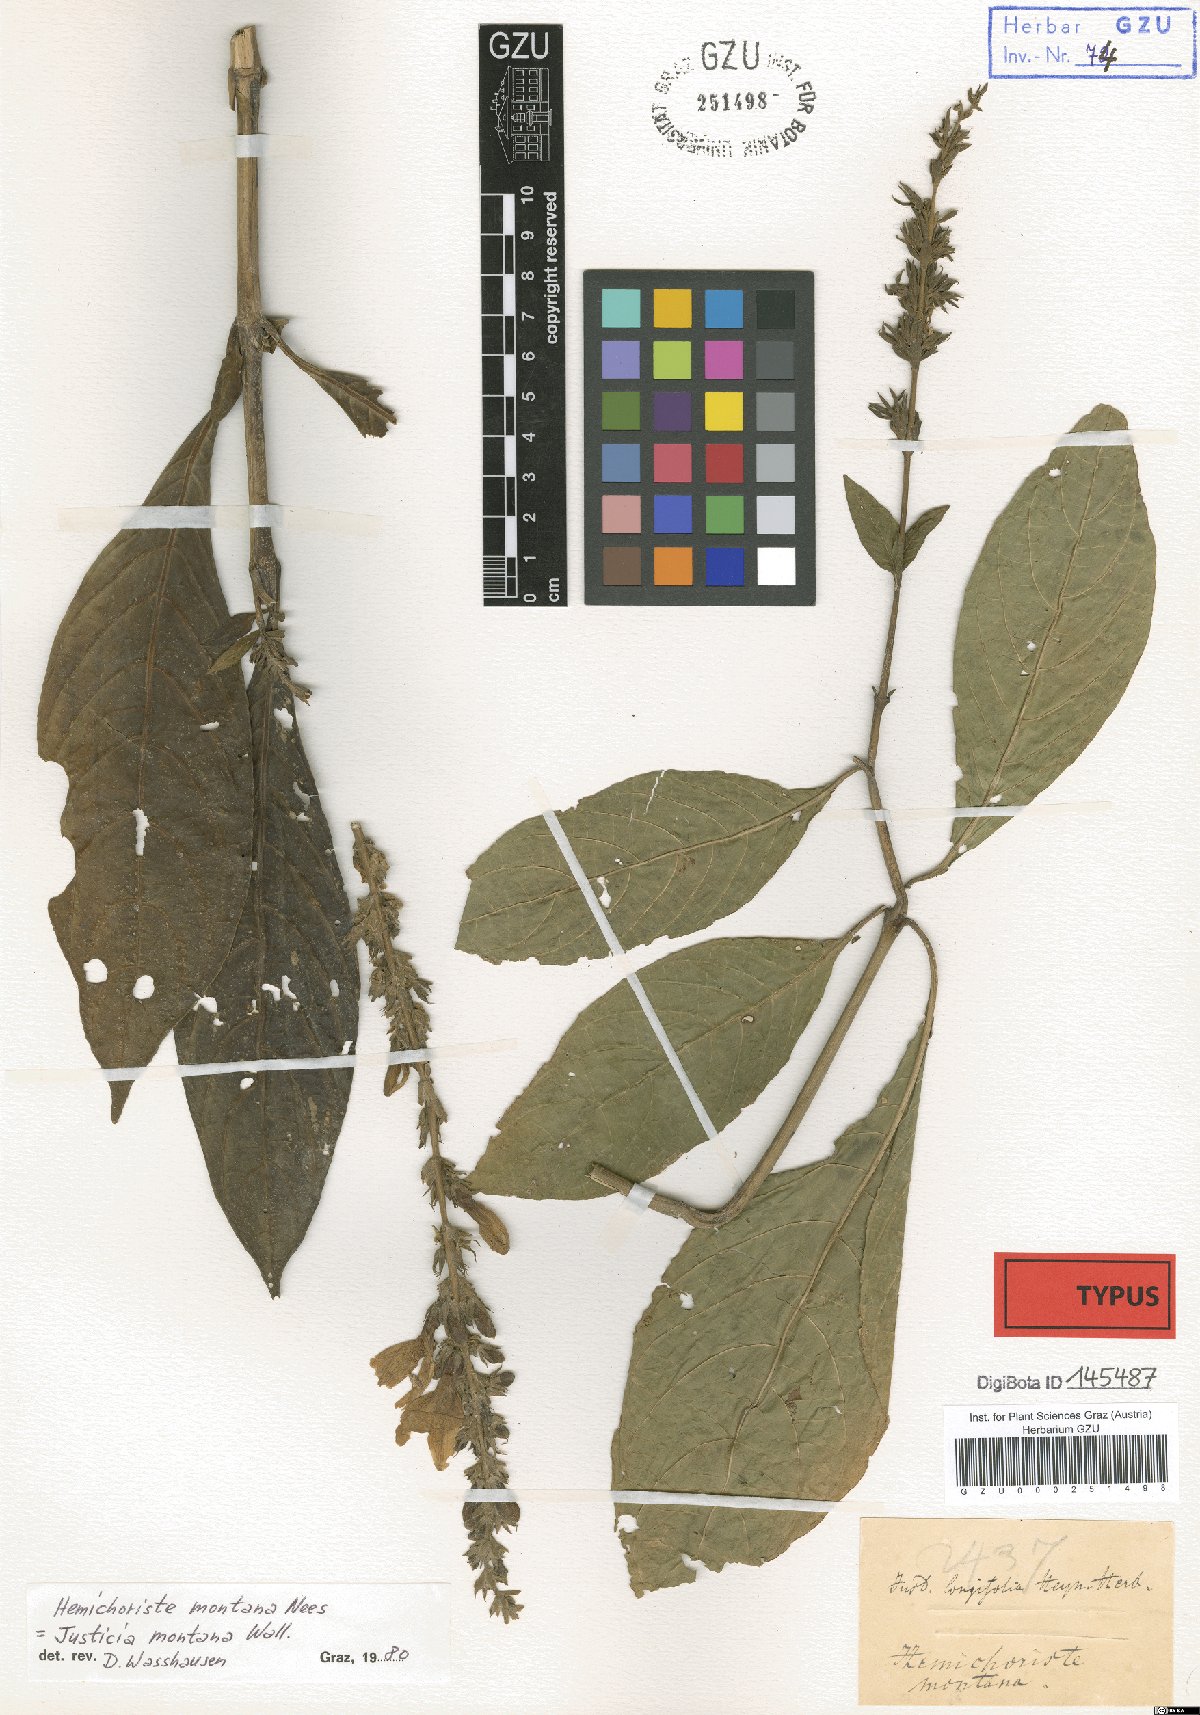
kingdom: Plantae
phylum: Tracheophyta
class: Magnoliopsida
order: Lamiales
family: Acanthaceae
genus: Justicia
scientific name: Justicia santapaui
